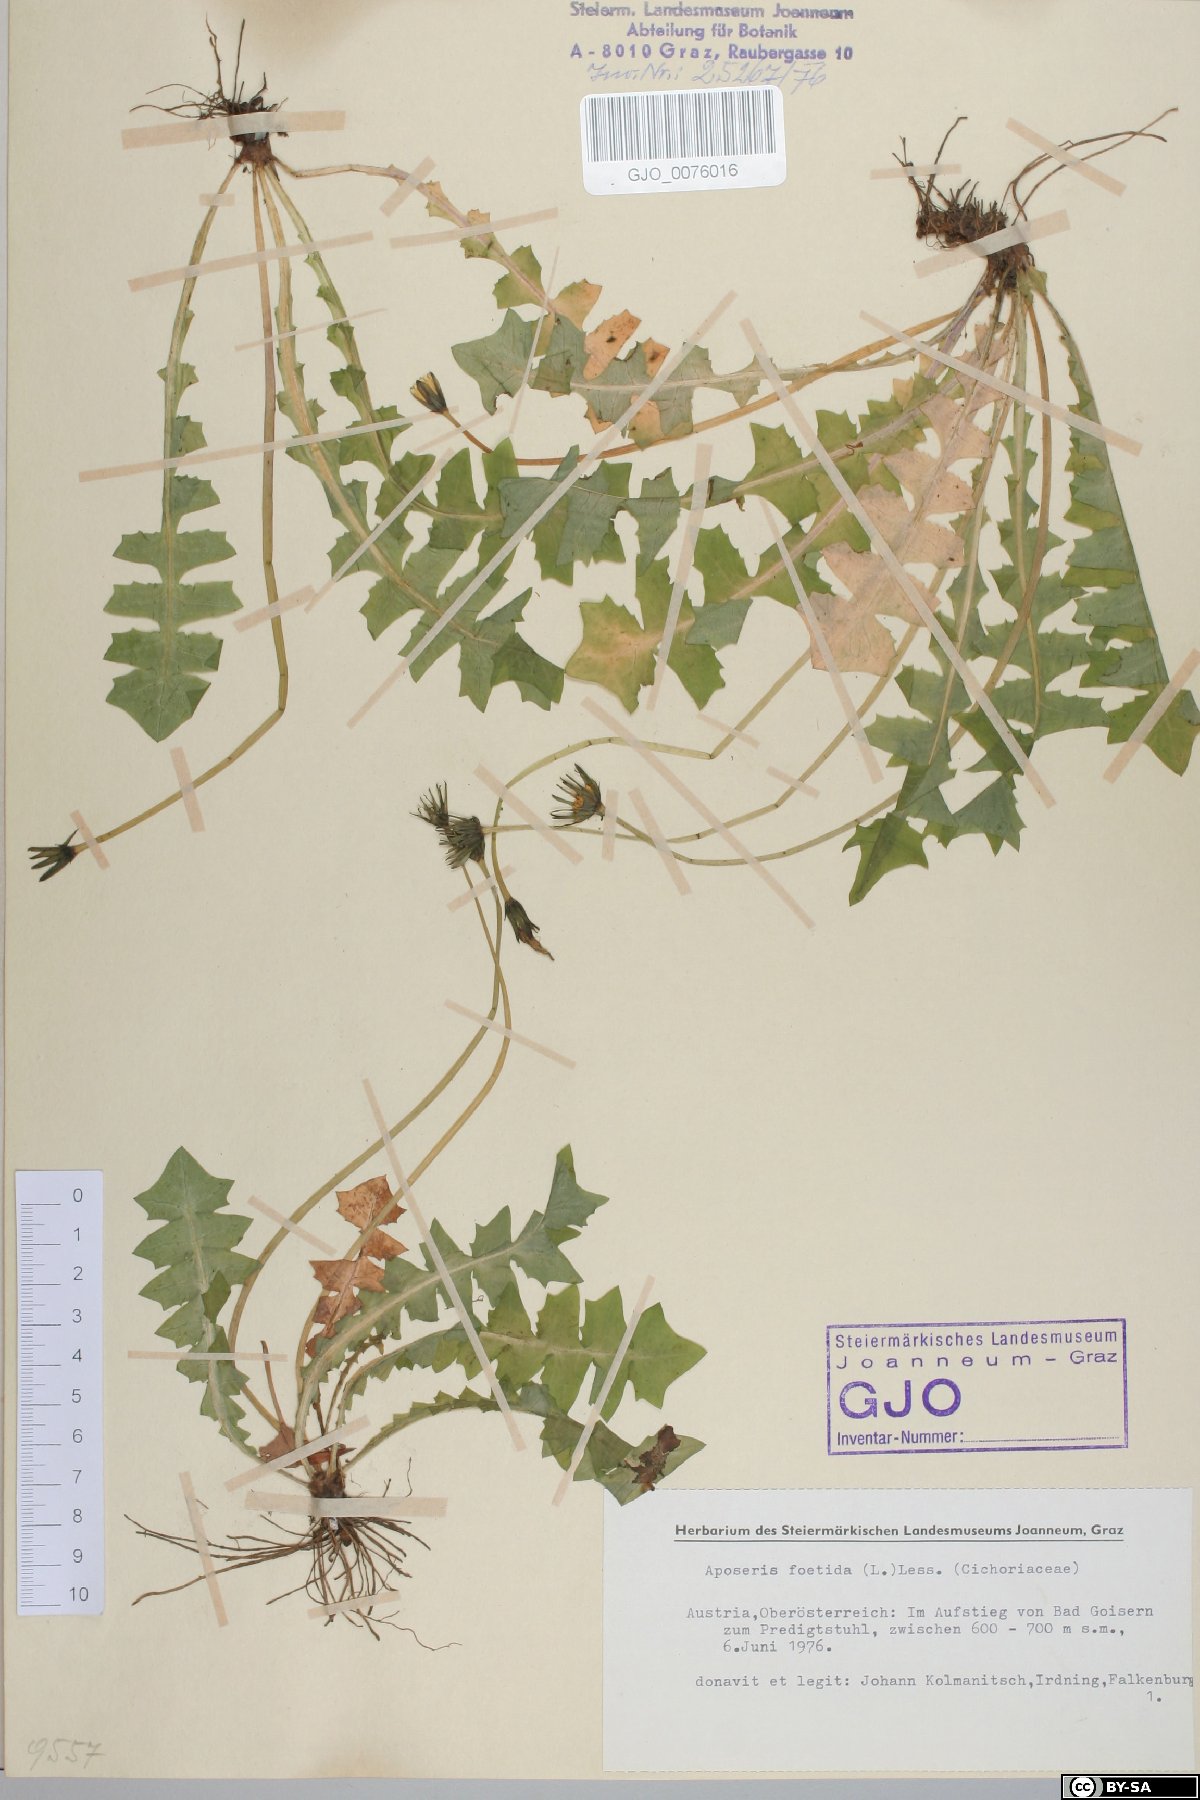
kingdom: Plantae
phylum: Tracheophyta
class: Magnoliopsida
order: Asterales
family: Asteraceae
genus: Aposeris
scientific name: Aposeris foetida
